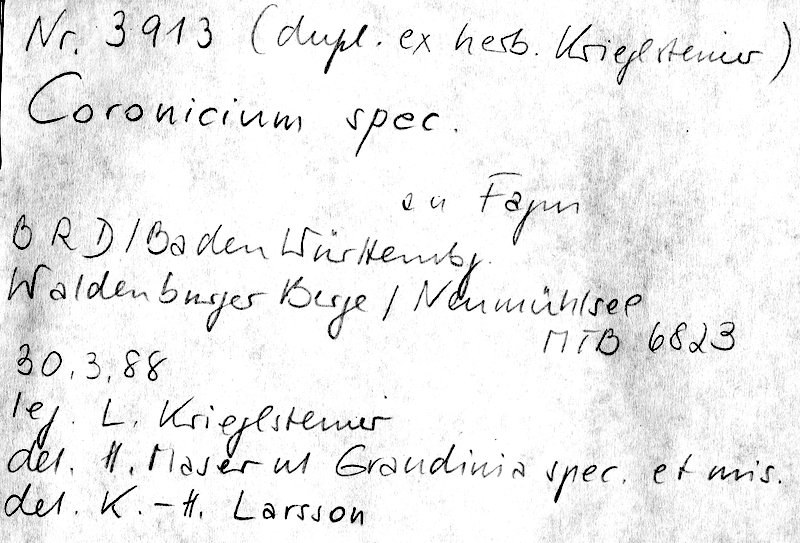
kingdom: Plantae
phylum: Tracheophyta
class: Magnoliopsida
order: Fagales
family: Fagaceae
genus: Fagus
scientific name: Fagus sylvatica
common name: Beech
